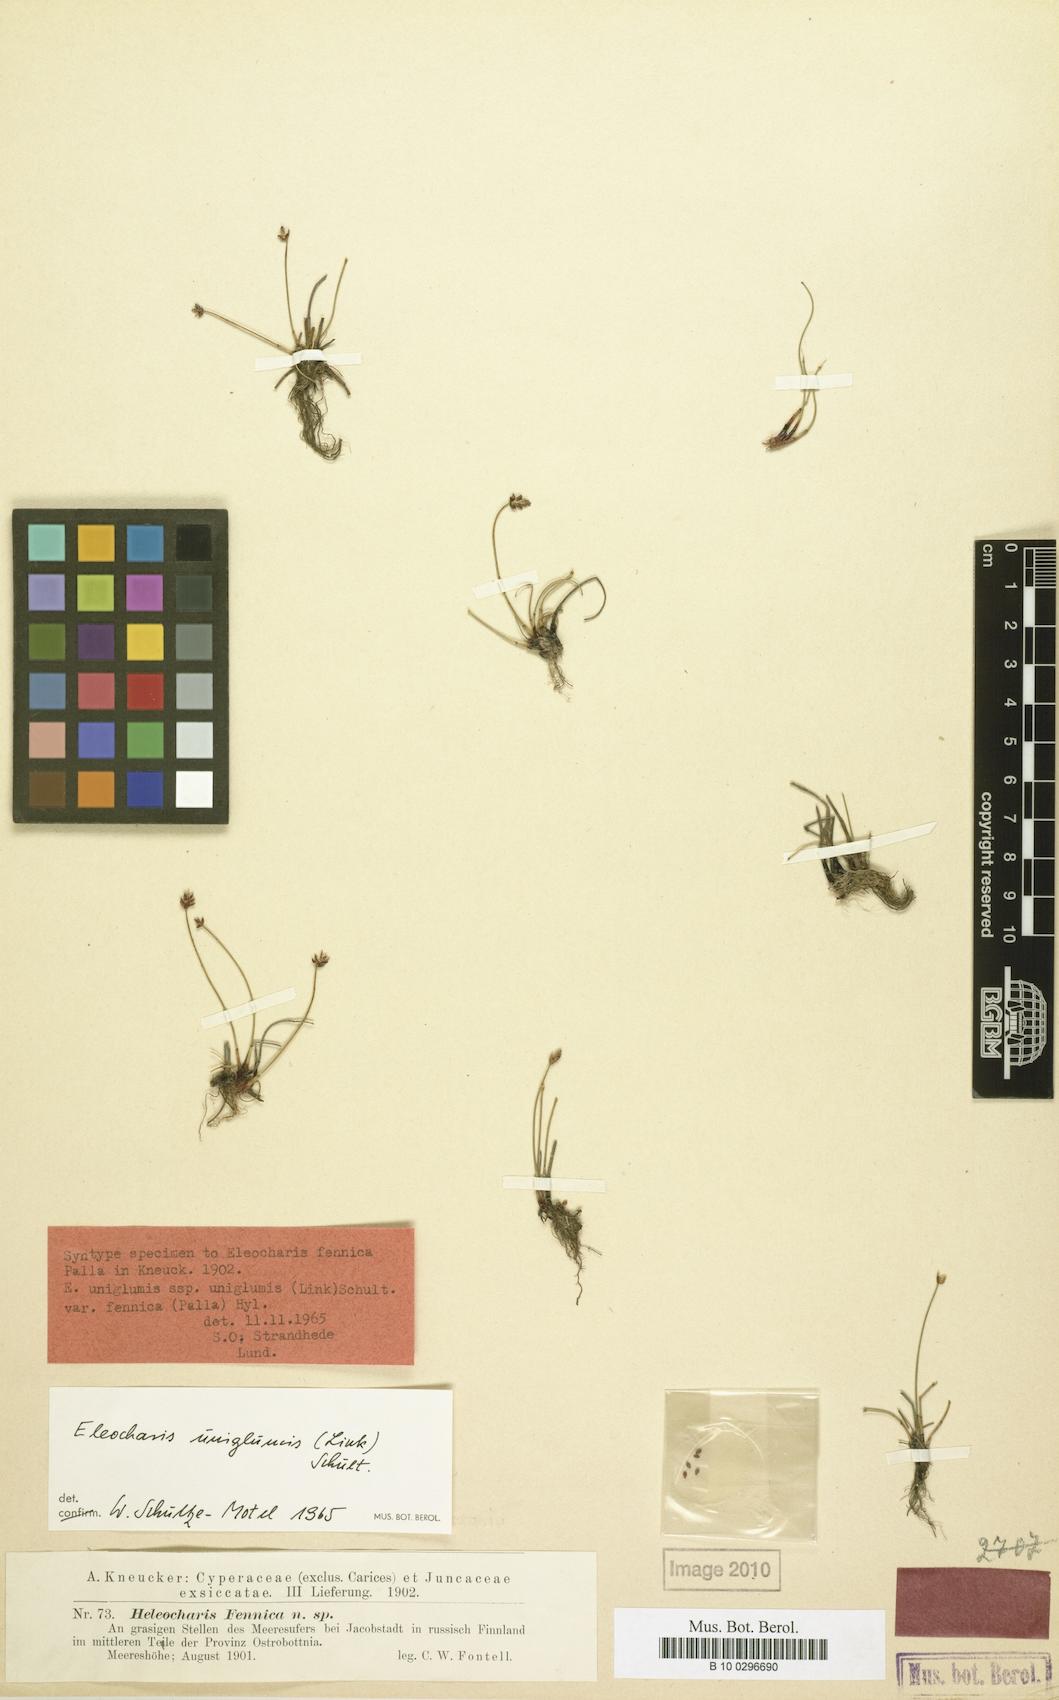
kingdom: Plantae
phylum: Tracheophyta
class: Liliopsida
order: Poales
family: Cyperaceae
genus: Eleocharis
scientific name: Eleocharis uniglumis
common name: Slender spike-rush
